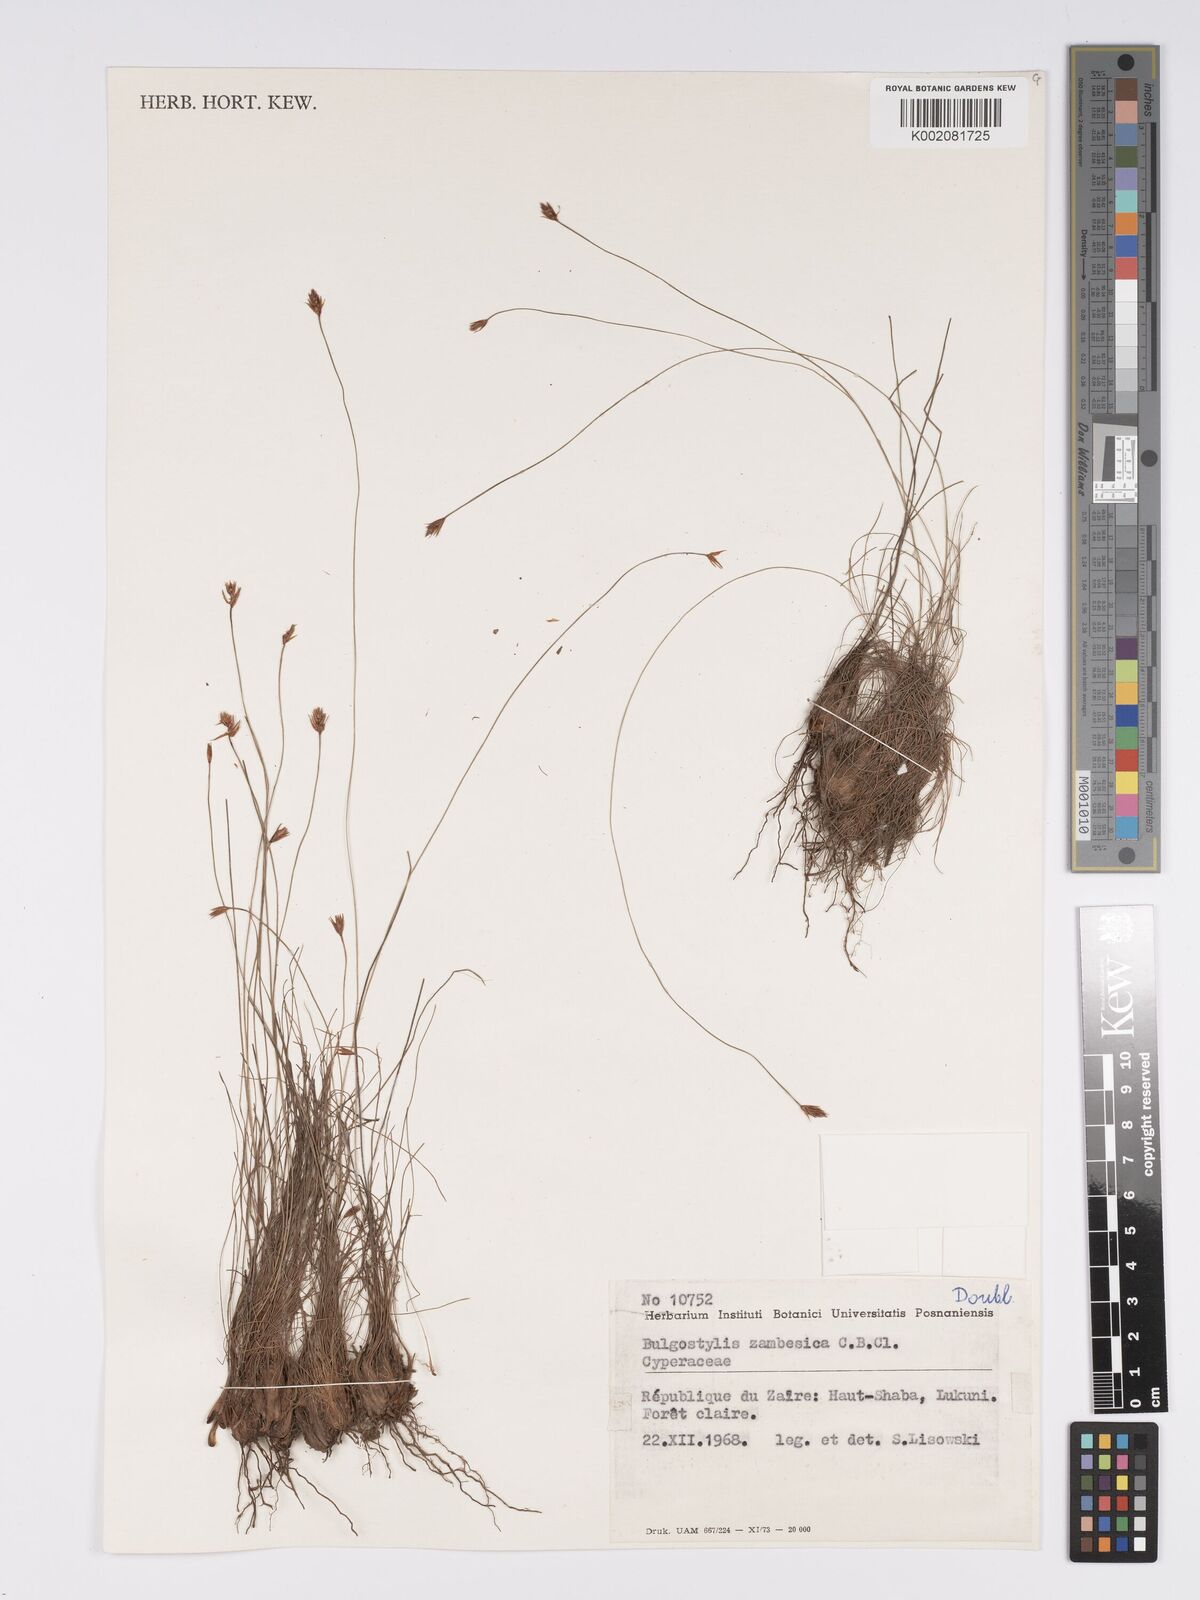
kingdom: Plantae
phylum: Tracheophyta
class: Liliopsida
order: Poales
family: Cyperaceae
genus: Bulbostylis
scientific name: Bulbostylis macra
